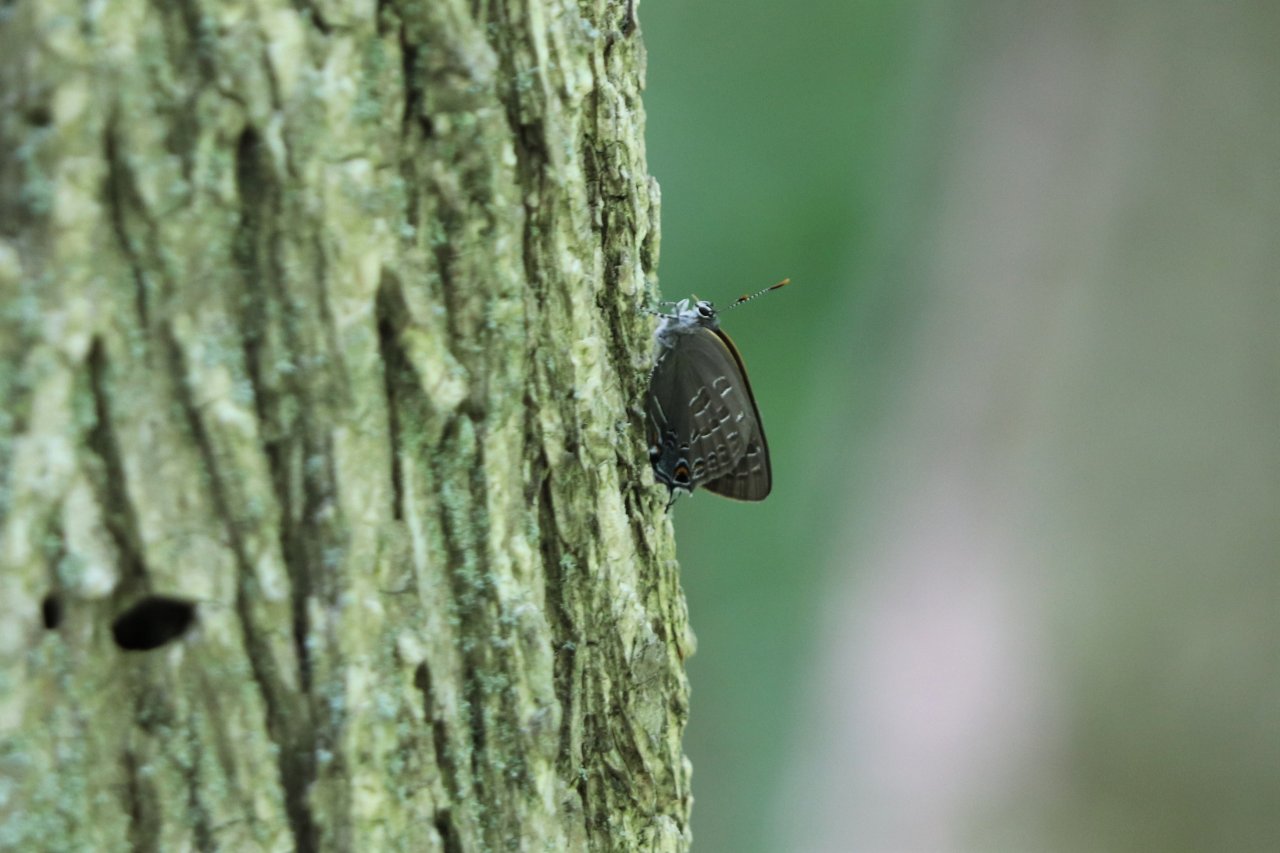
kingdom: Animalia
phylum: Arthropoda
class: Insecta
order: Lepidoptera
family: Lycaenidae
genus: Strymon
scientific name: Strymon caryaevorus
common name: Hickory Hairstreak
